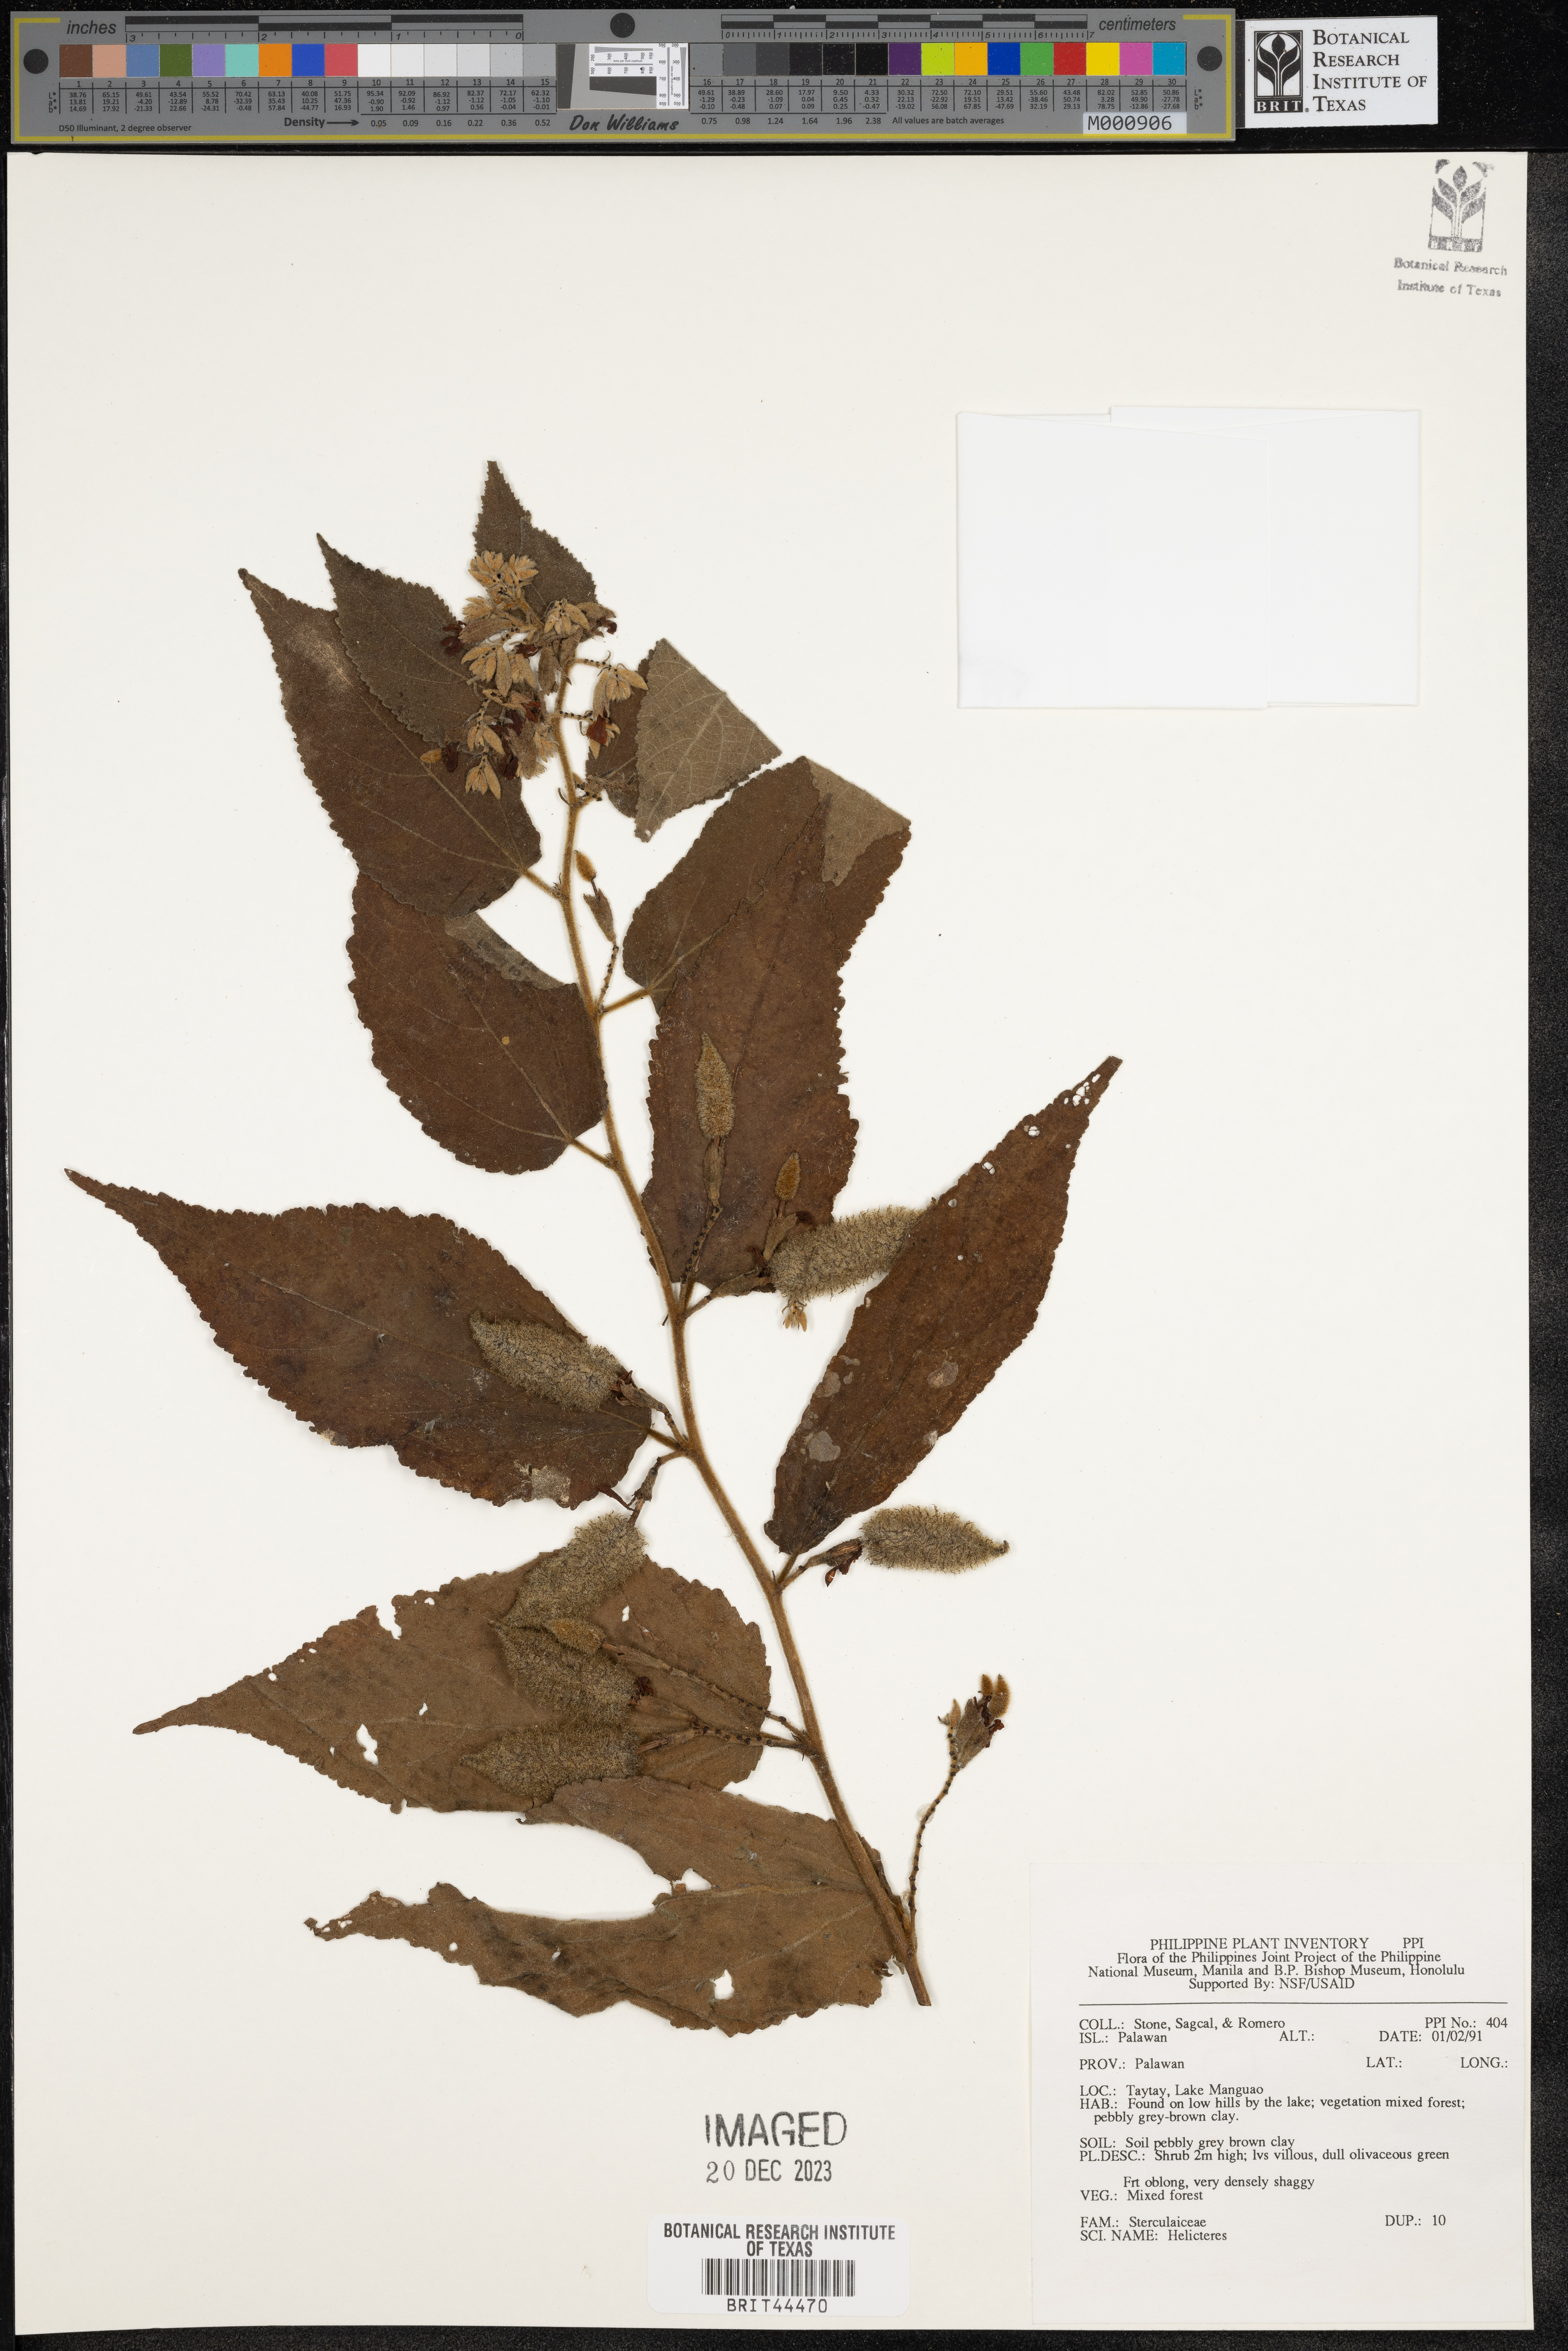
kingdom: Plantae
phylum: Tracheophyta
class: Magnoliopsida
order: Malvales
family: Malvaceae
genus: Helicteres
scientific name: Helicteres
